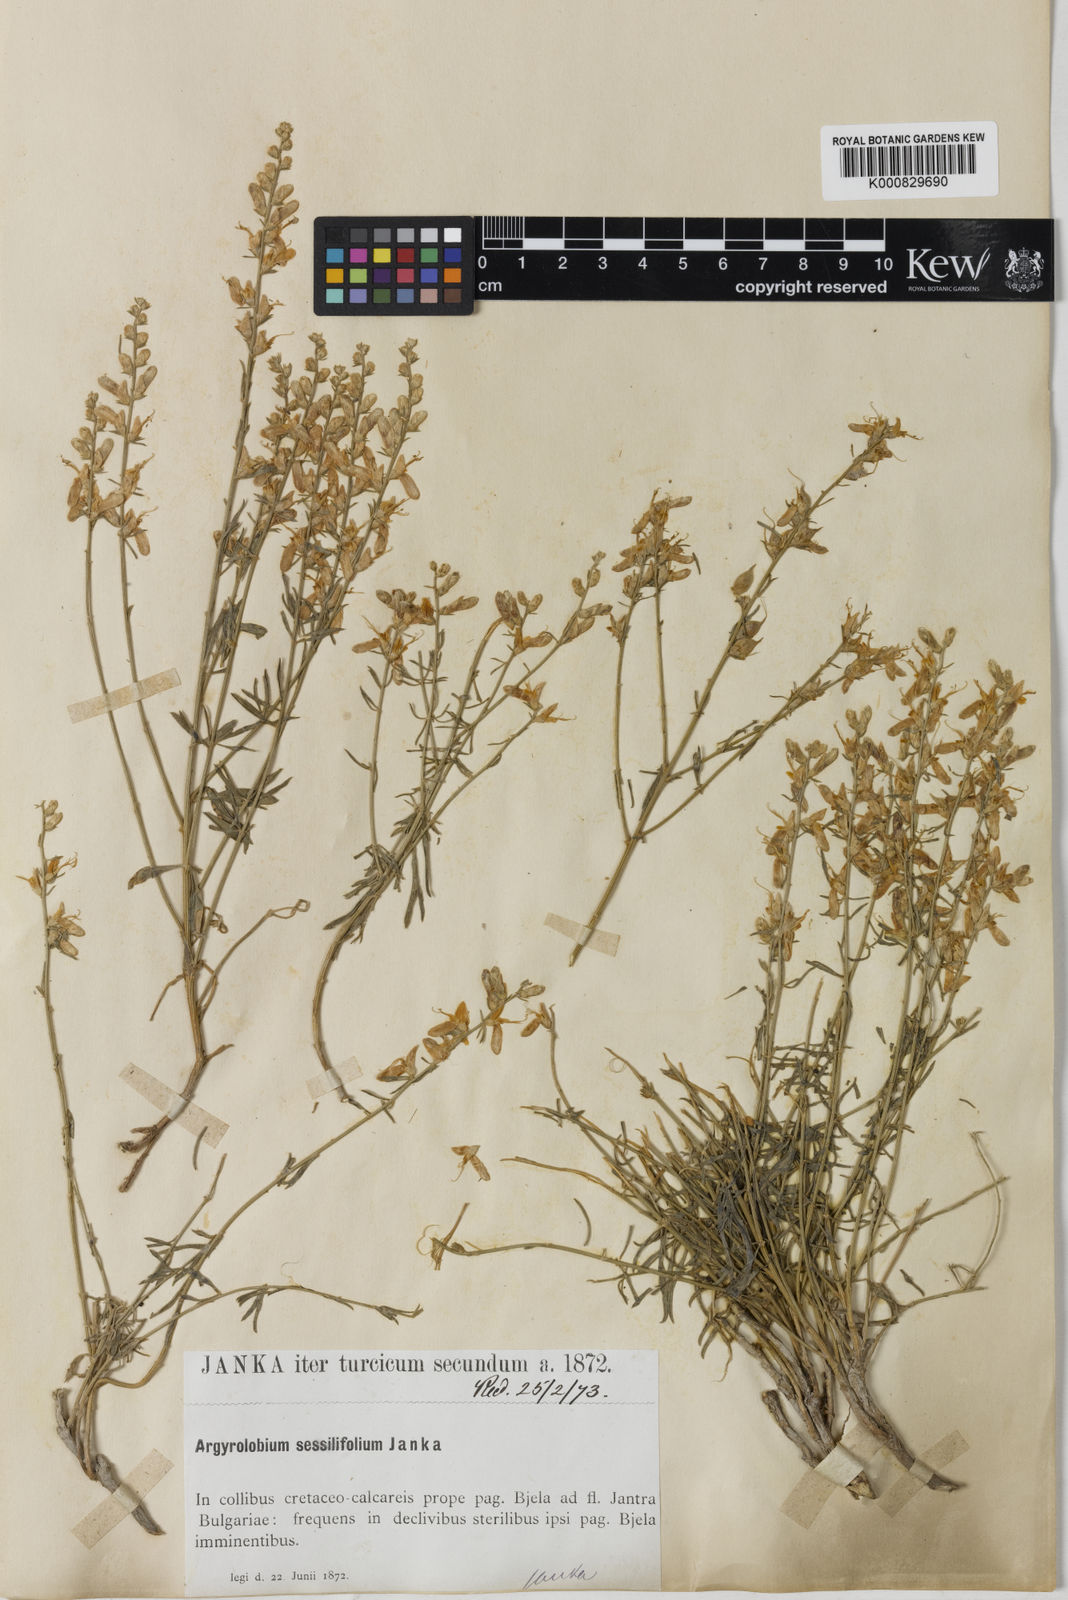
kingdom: Plantae
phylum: Tracheophyta
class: Magnoliopsida
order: Fabales
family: Fabaceae
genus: Genista
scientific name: Genista sessilifolia
